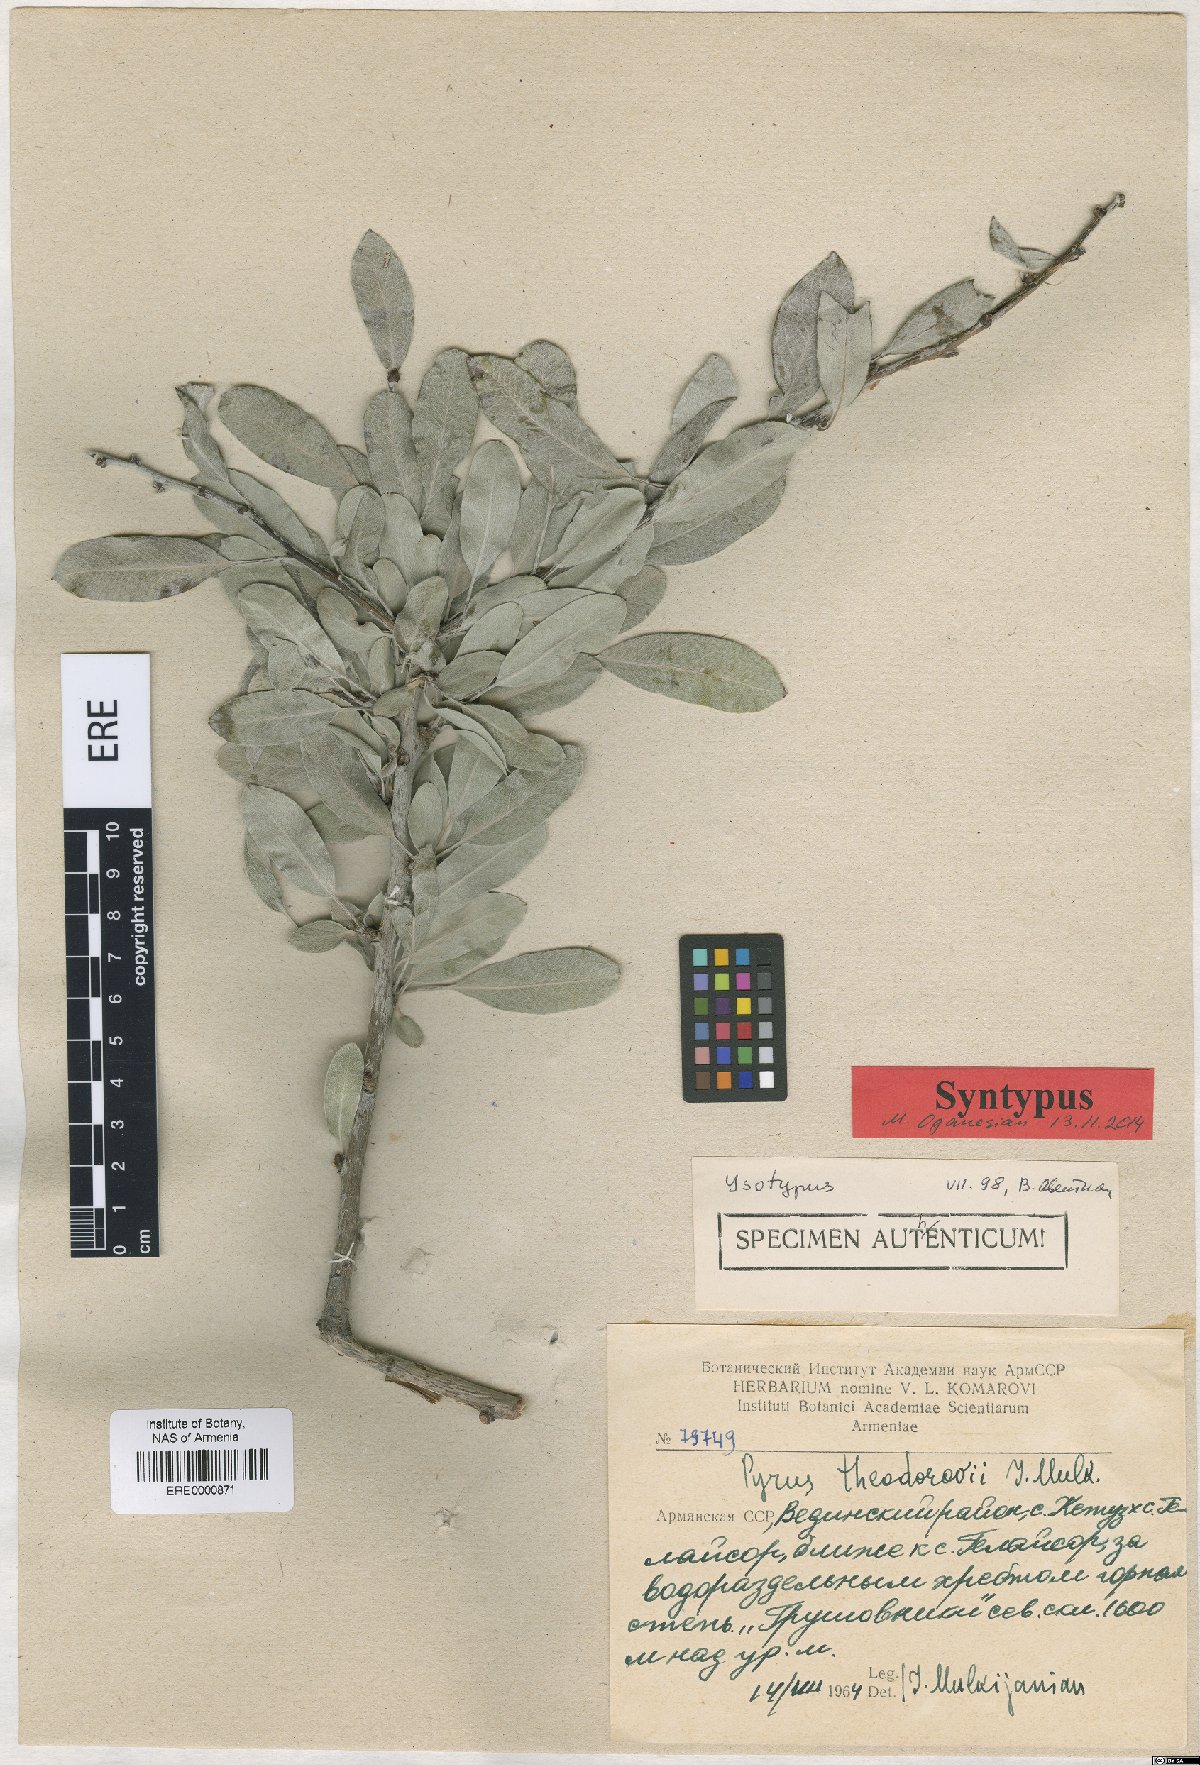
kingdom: Plantae
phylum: Tracheophyta
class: Magnoliopsida
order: Rosales
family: Rosaceae
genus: Pyrus
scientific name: Pyrus theodorovii
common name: Teodorov's pear
